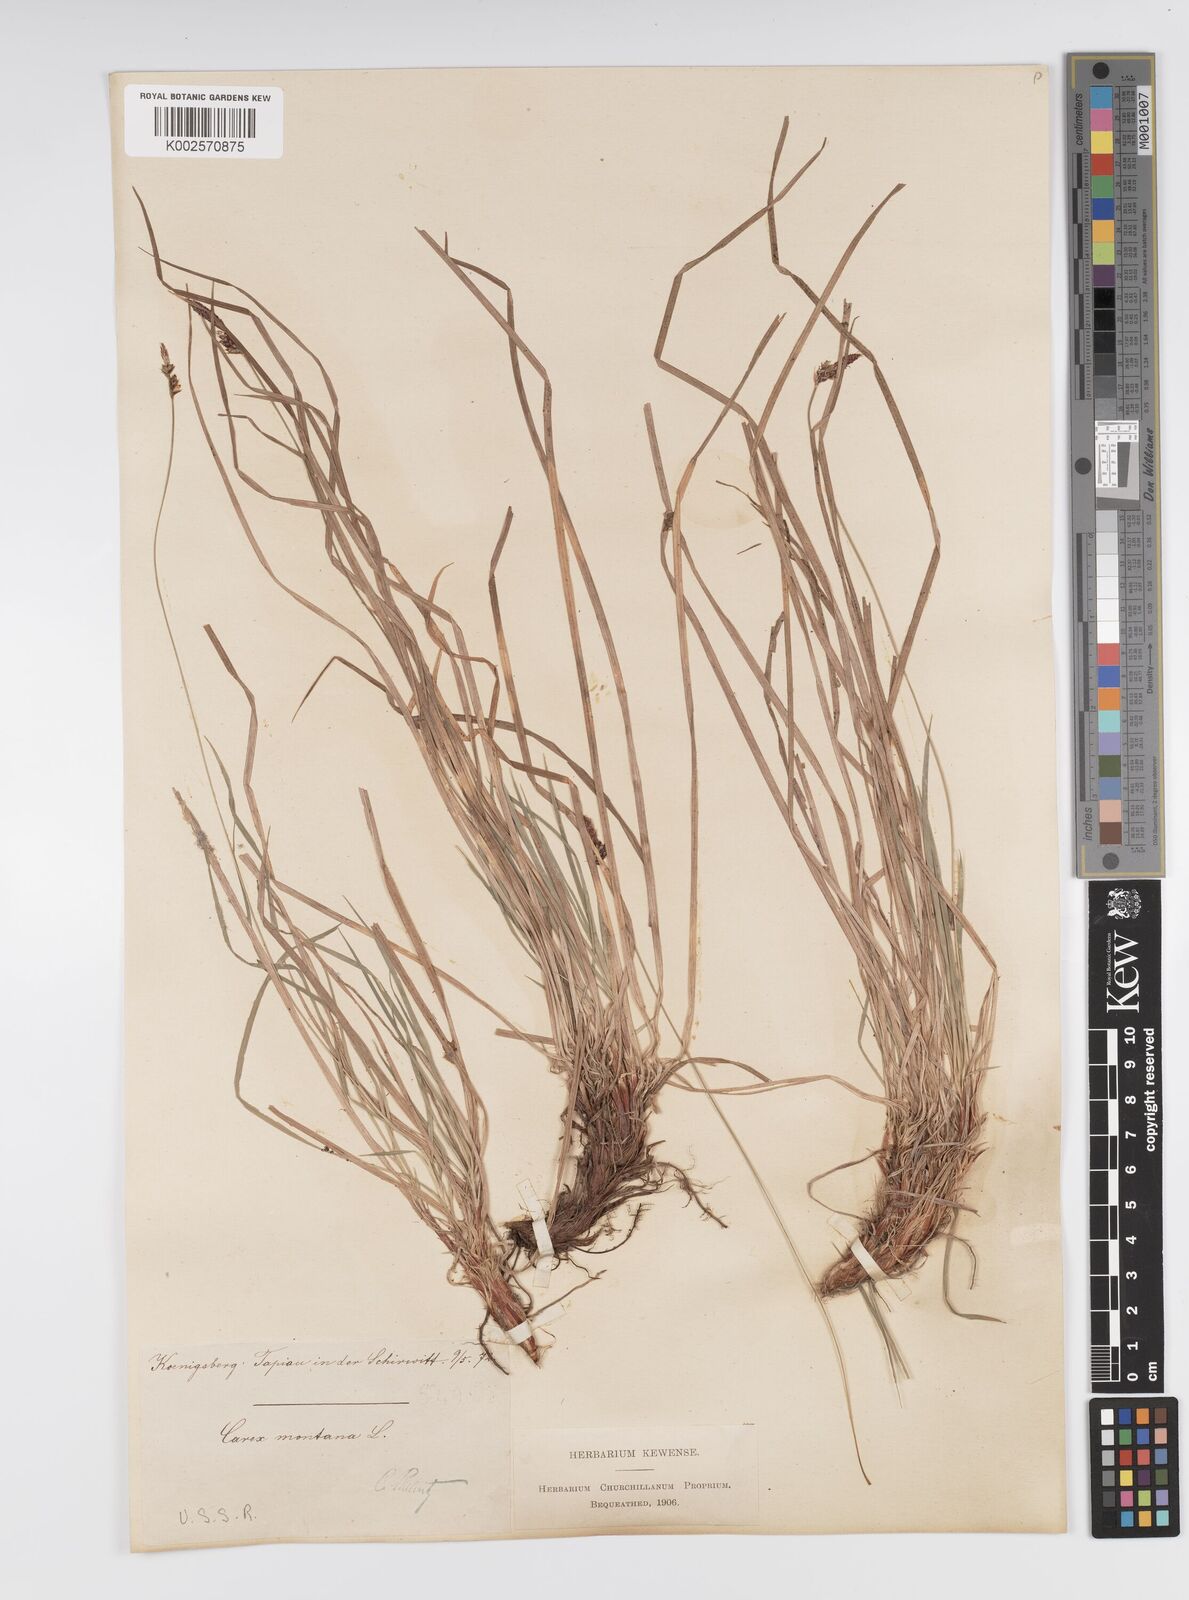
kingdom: Plantae
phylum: Tracheophyta
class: Liliopsida
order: Poales
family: Cyperaceae
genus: Carex
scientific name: Carex montana
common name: Soft-leaved sedge
